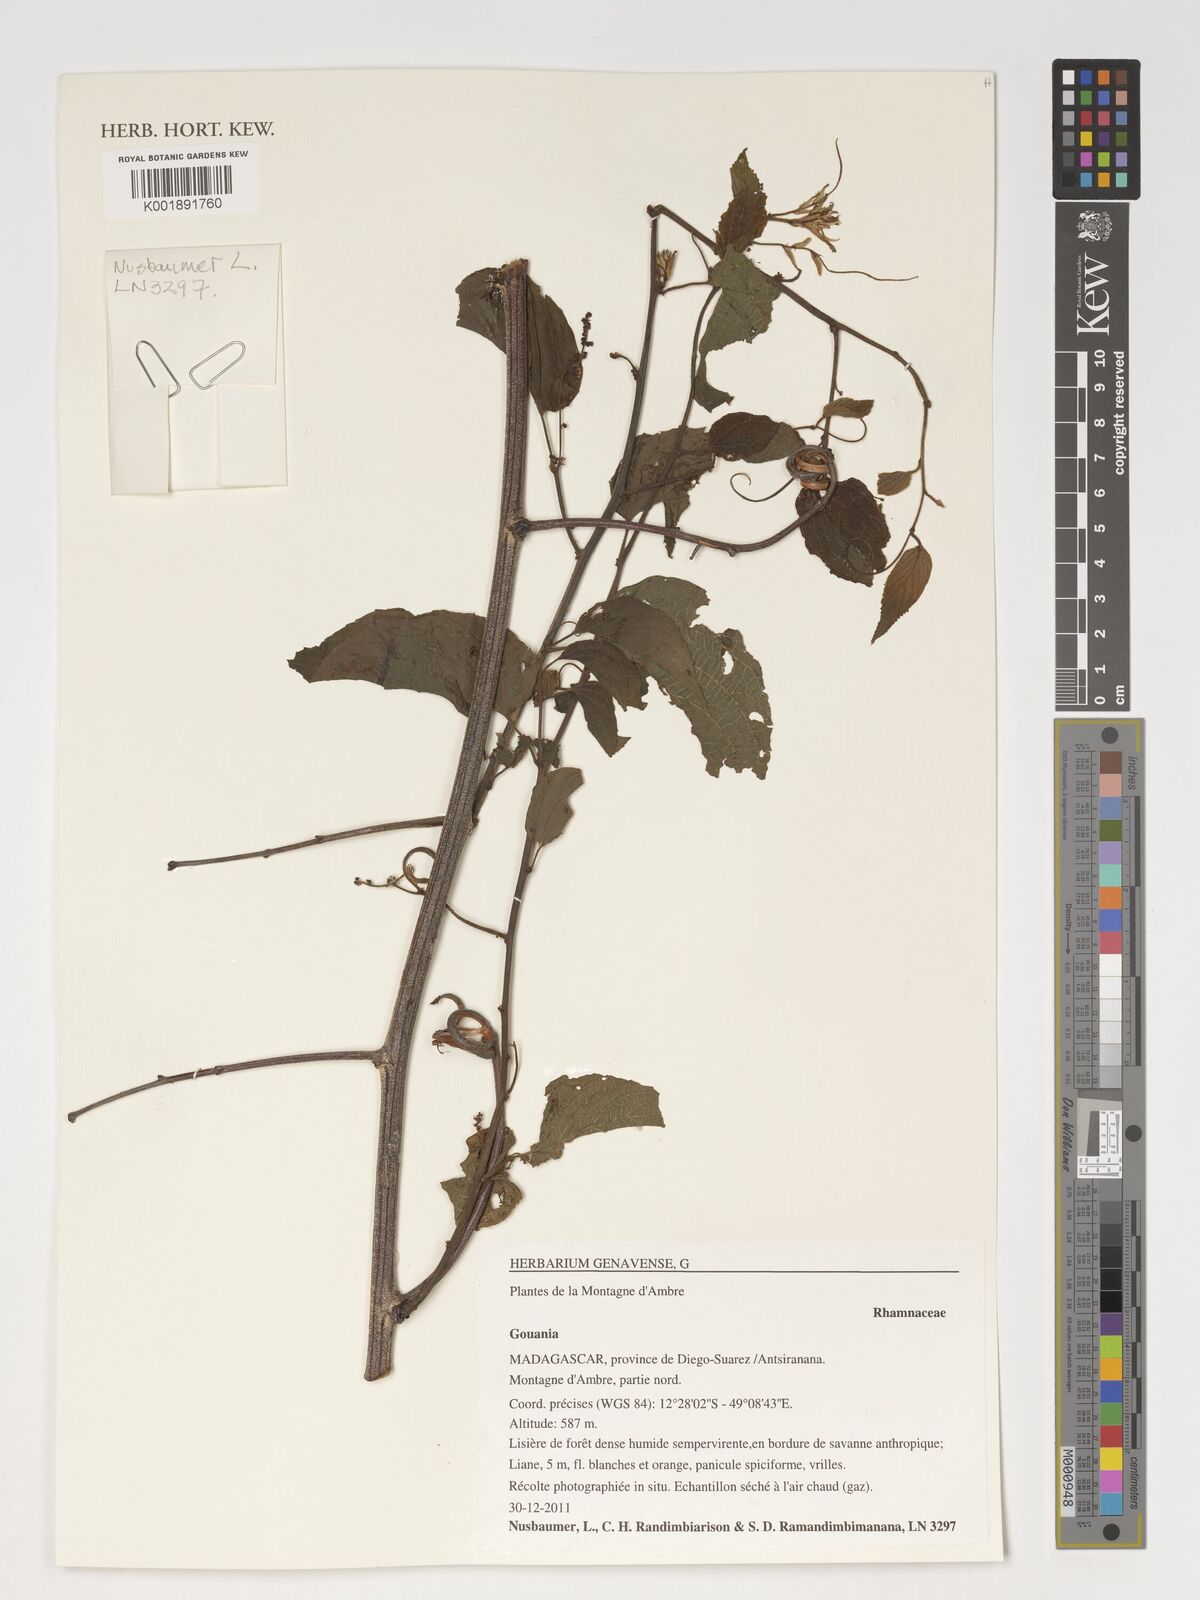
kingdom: Plantae
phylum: Tracheophyta
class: Magnoliopsida
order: Rosales
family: Rhamnaceae
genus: Gouania
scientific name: Gouania
